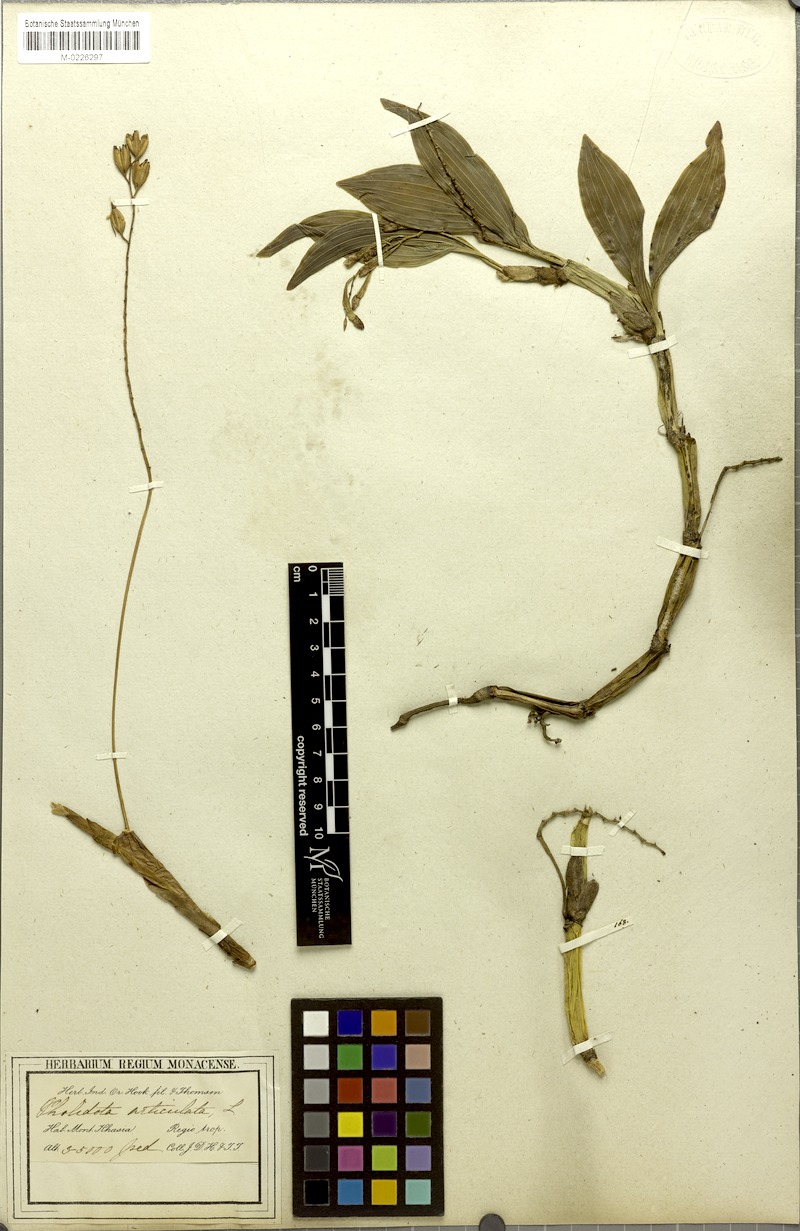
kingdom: Plantae
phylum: Tracheophyta
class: Liliopsida
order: Asparagales
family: Orchidaceae
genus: Coelogyne
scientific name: Coelogyne articulata
